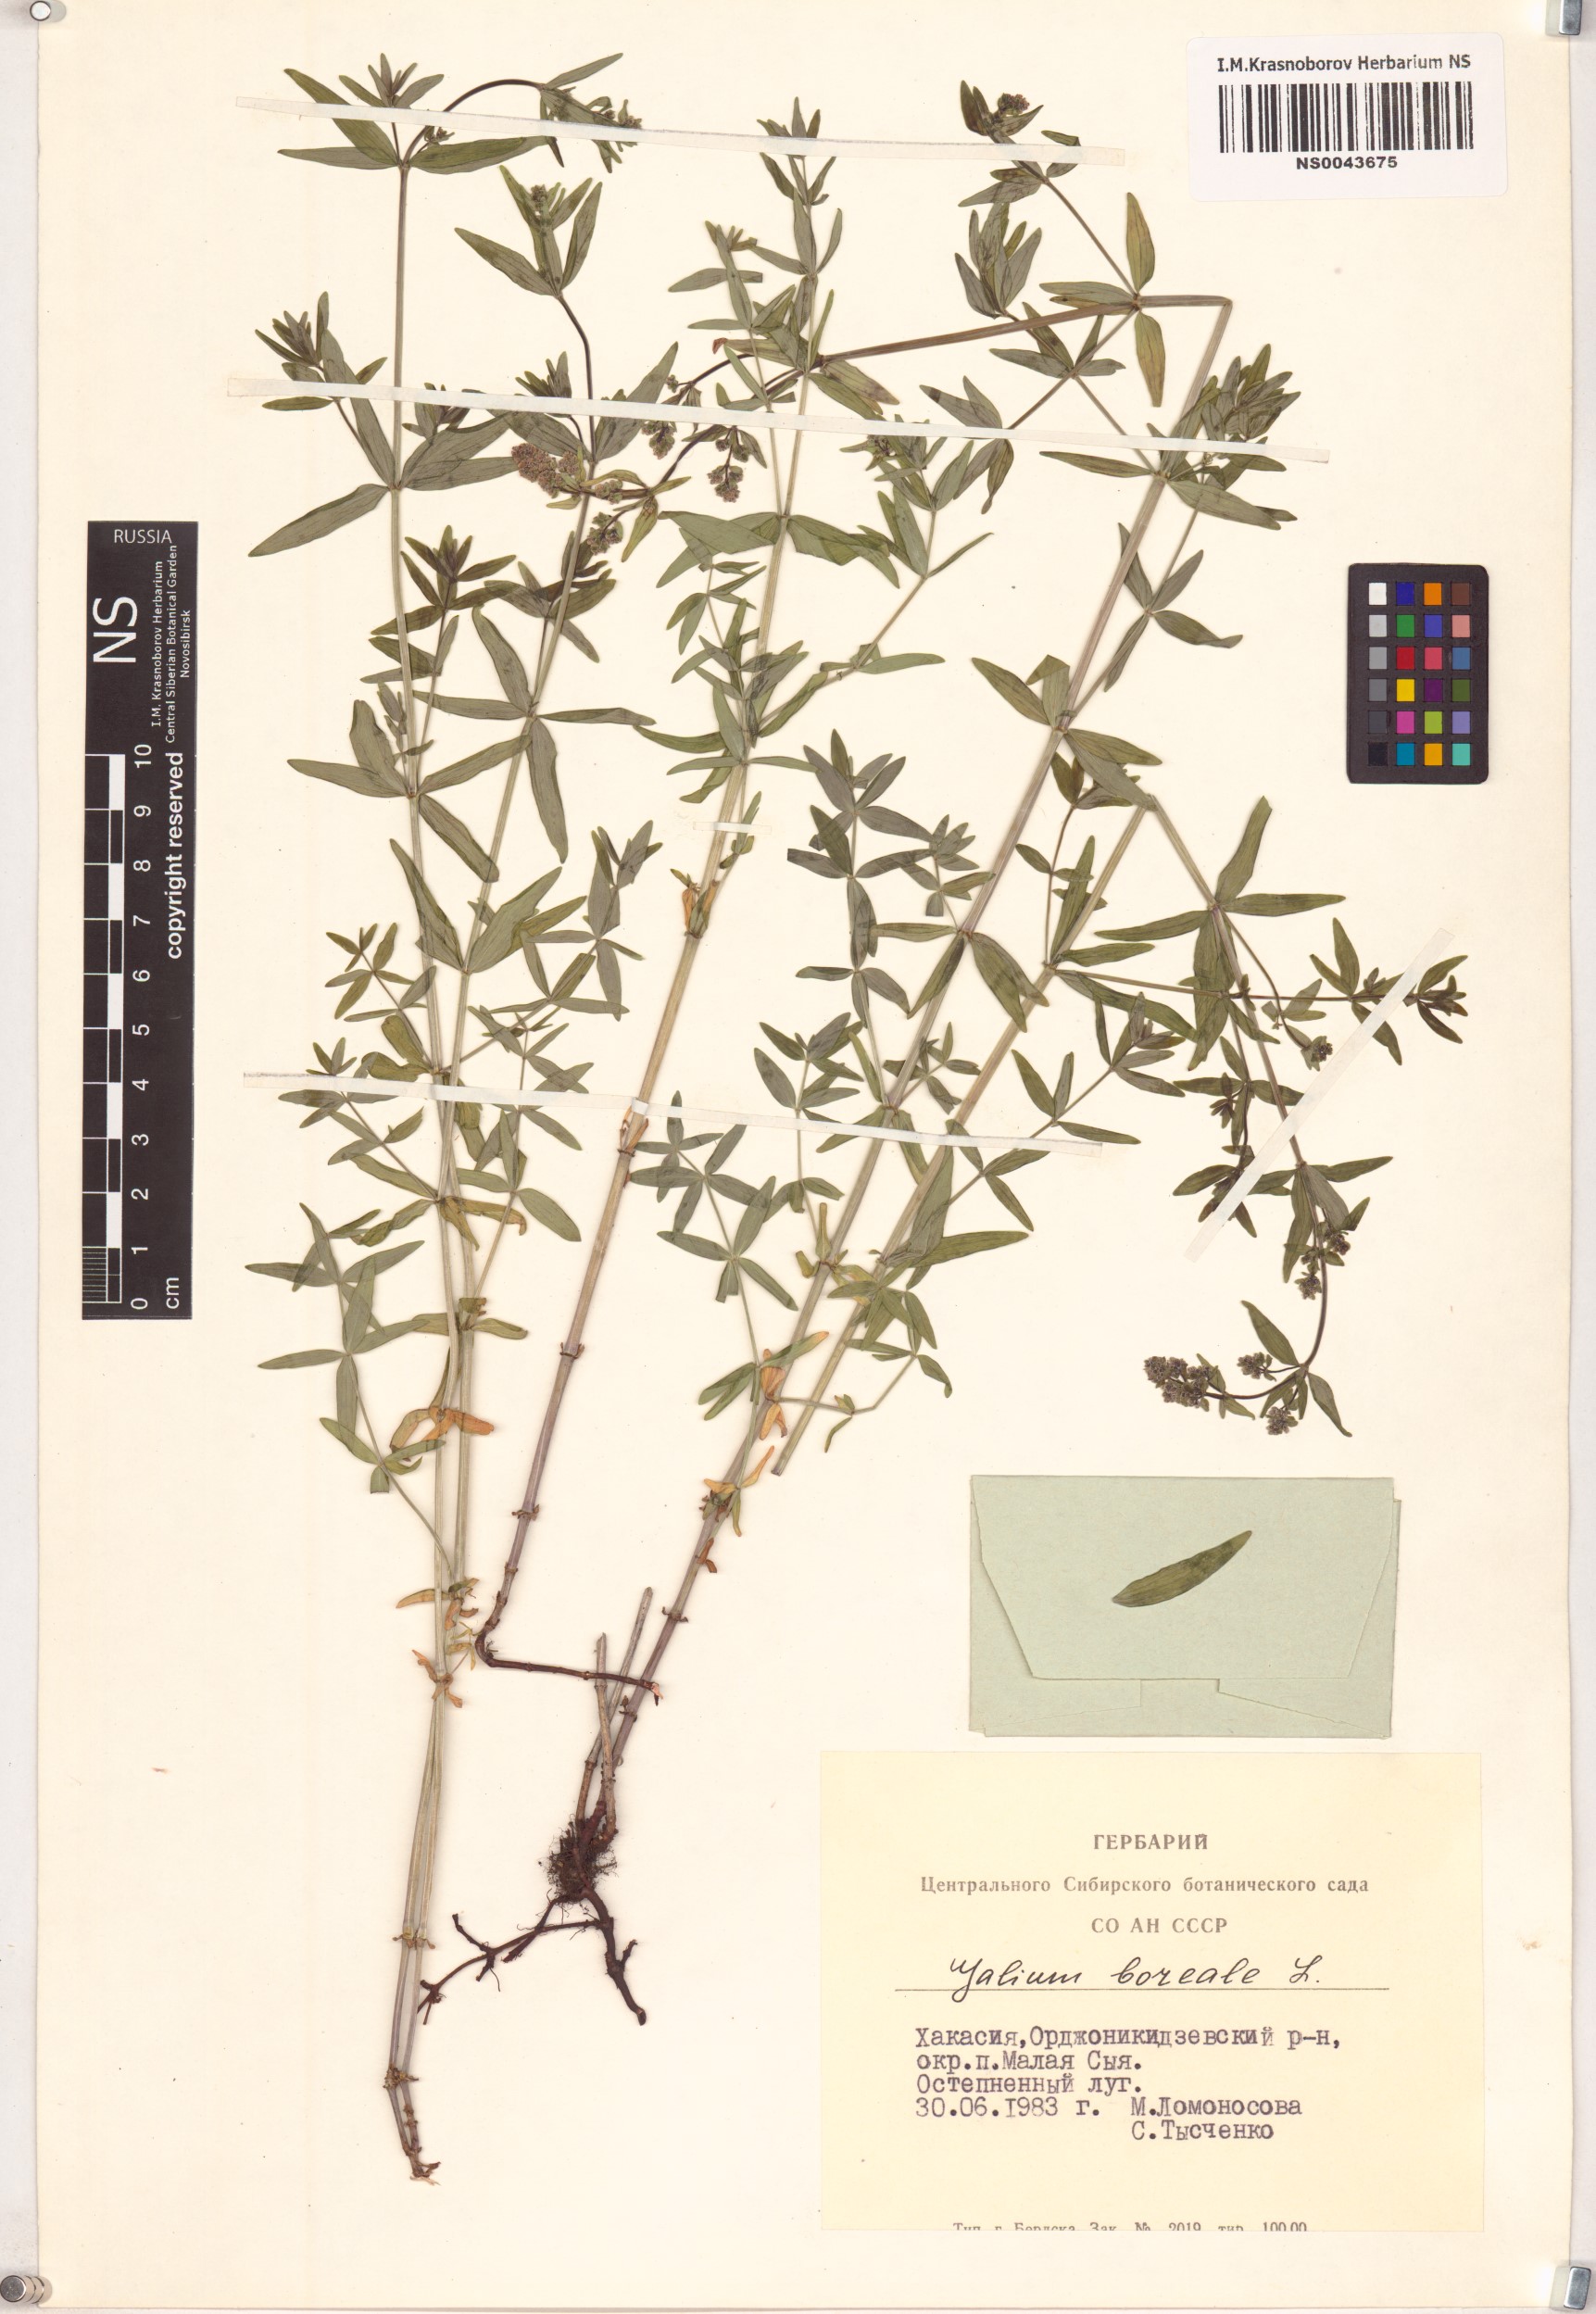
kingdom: Plantae
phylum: Tracheophyta
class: Magnoliopsida
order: Gentianales
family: Rubiaceae
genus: Galium
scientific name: Galium boreale
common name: Northern bedstraw
